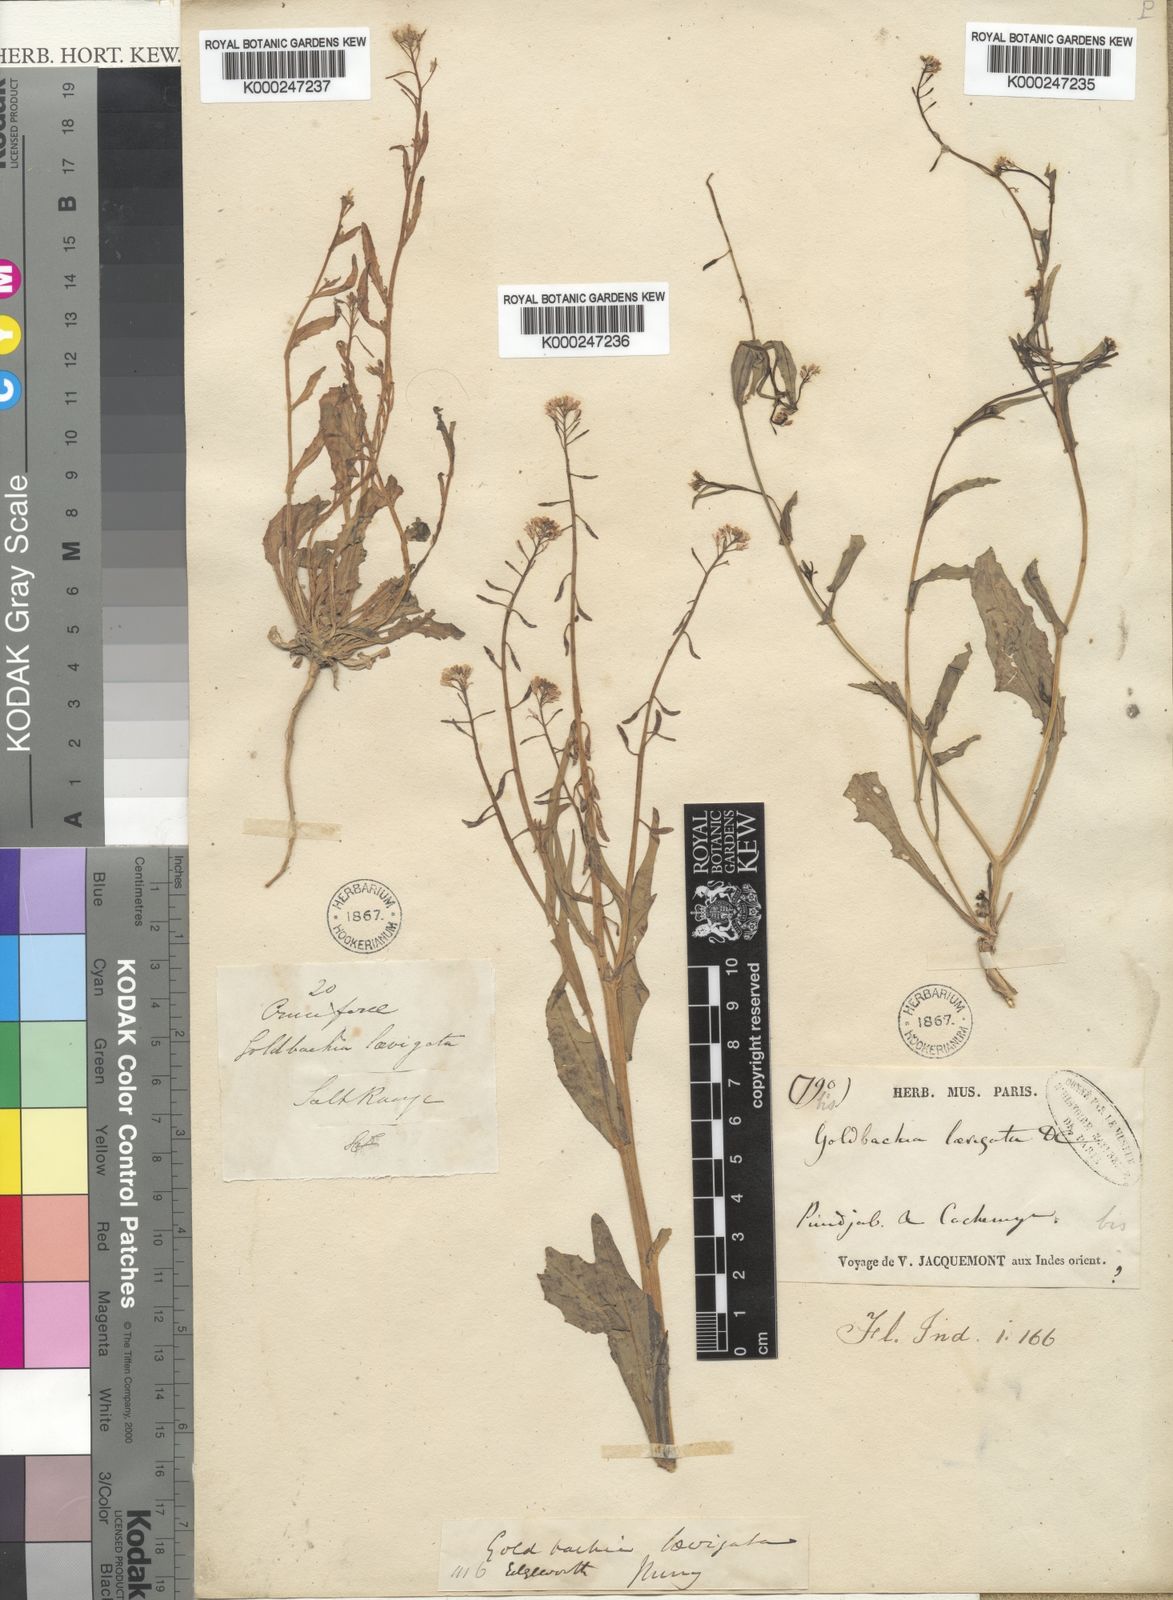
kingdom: Plantae
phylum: Tracheophyta
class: Magnoliopsida
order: Brassicales
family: Brassicaceae
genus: Goldbachia
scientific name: Goldbachia laevigata
